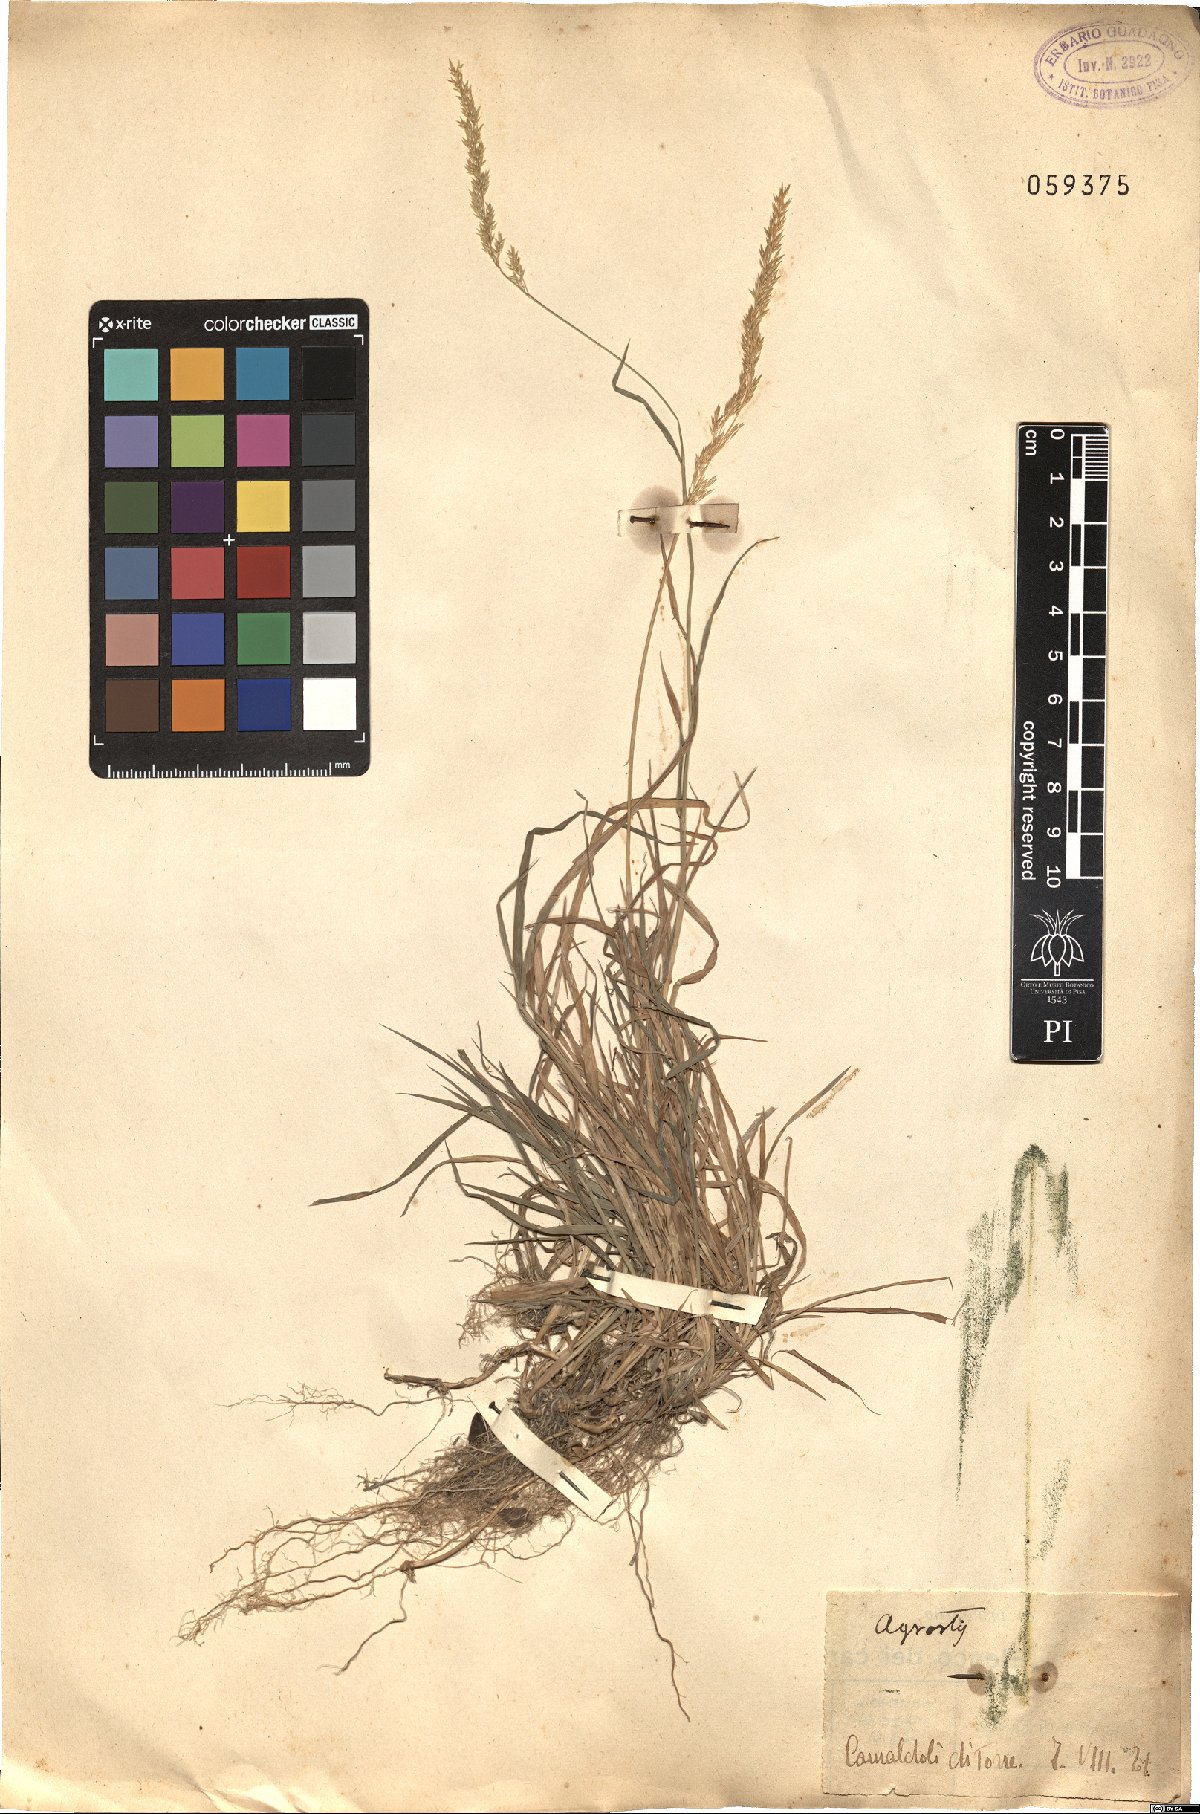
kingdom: Plantae
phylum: Tracheophyta
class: Liliopsida
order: Poales
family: Poaceae
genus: Agrostis
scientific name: Agrostis
